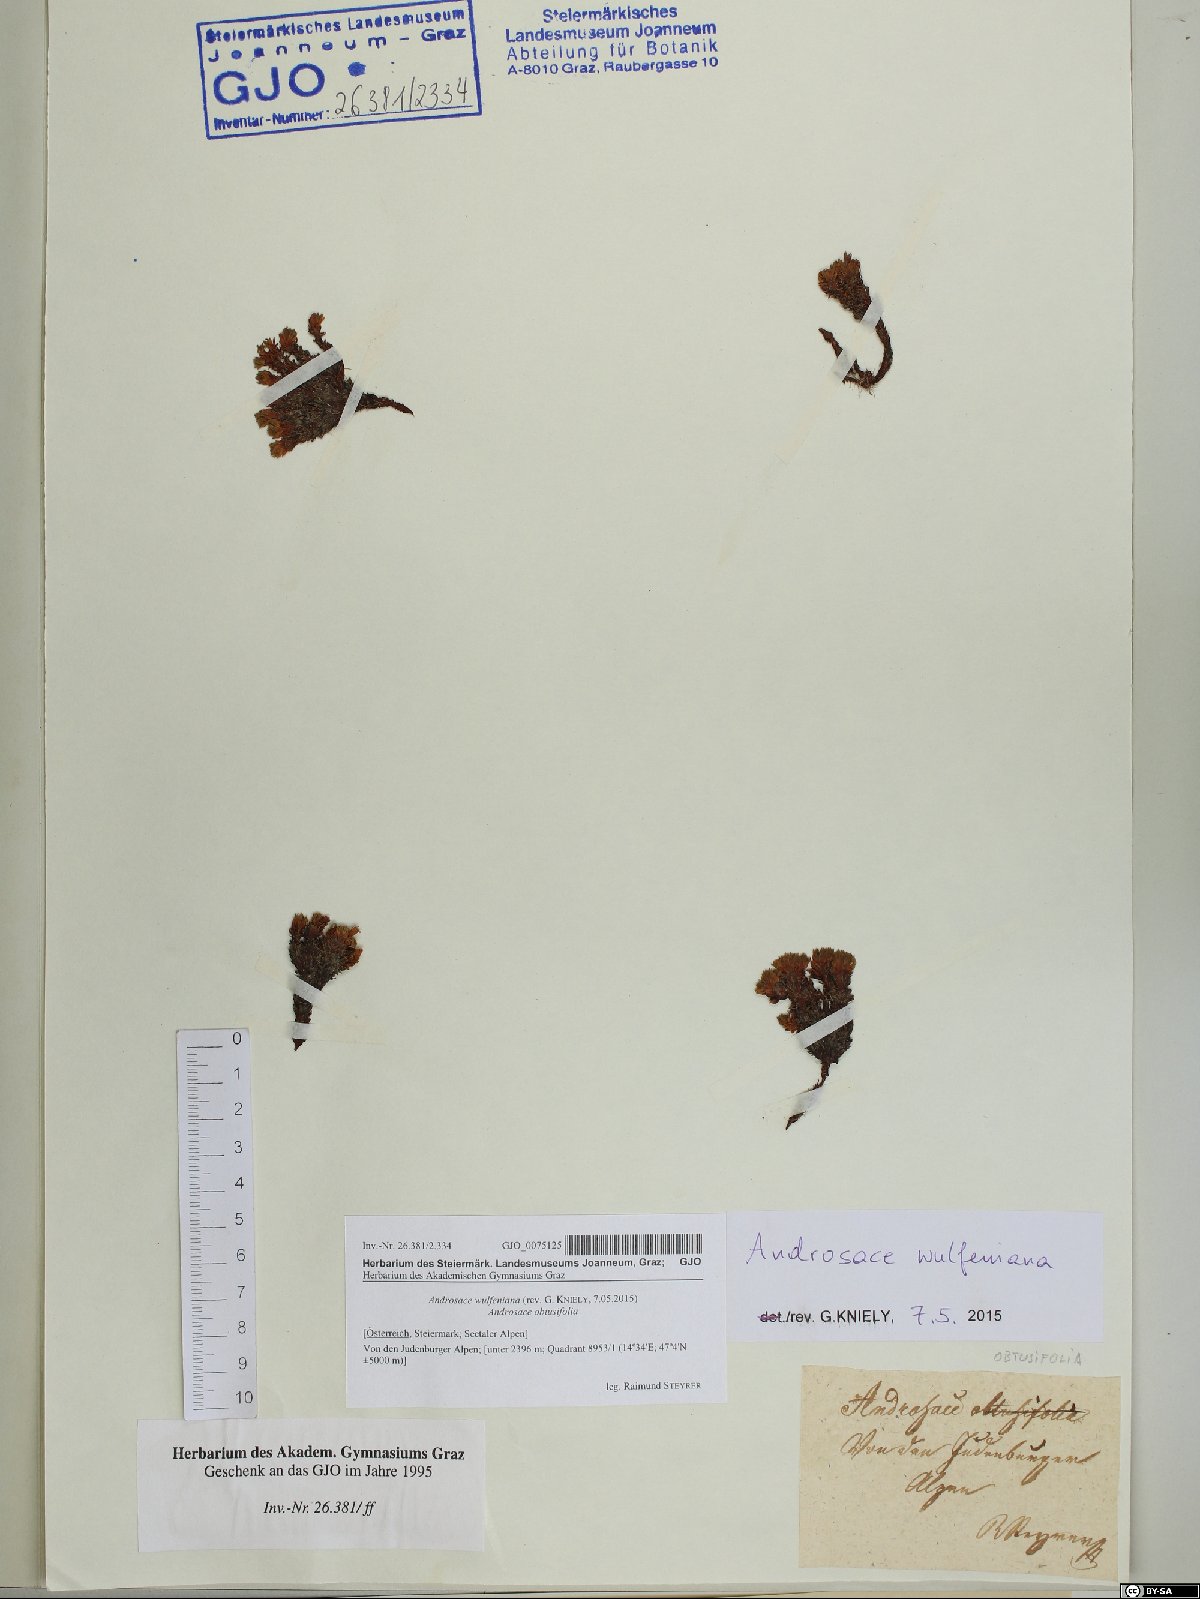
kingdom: Plantae
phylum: Tracheophyta
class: Magnoliopsida
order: Ericales
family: Primulaceae
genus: Androsace
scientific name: Androsace wulfeniana
